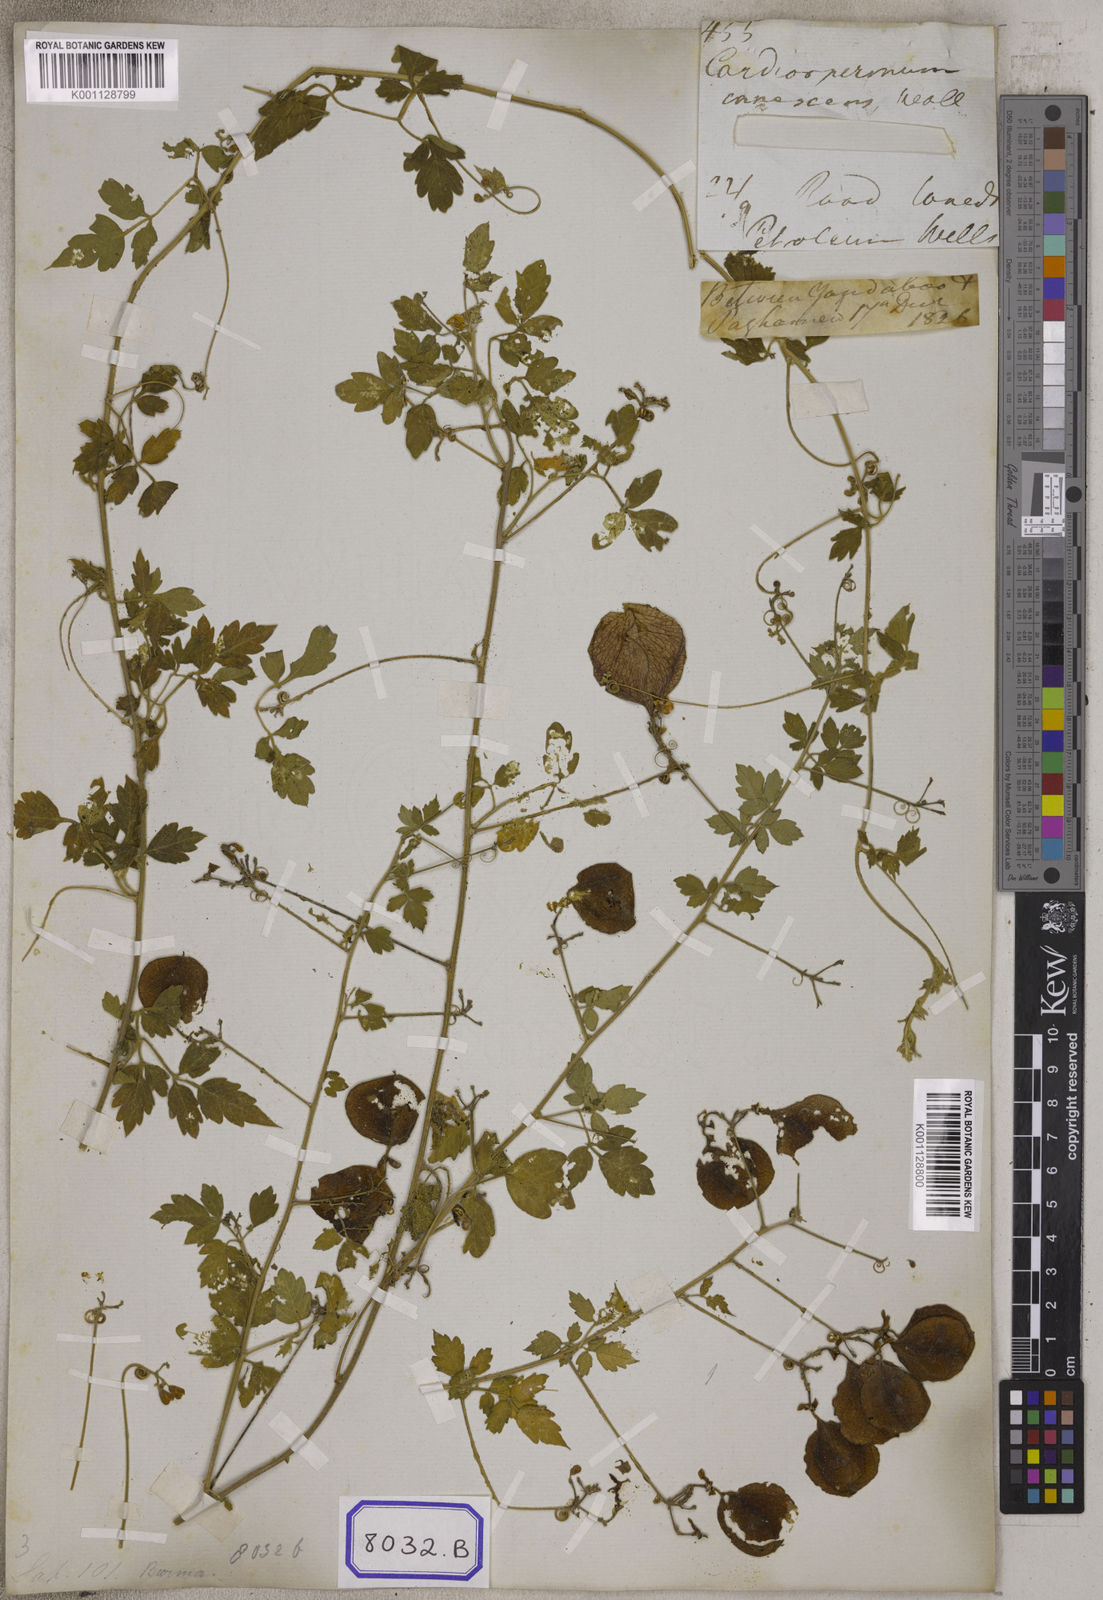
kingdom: Plantae
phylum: Tracheophyta
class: Magnoliopsida
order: Sapindales
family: Sapindaceae
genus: Cardiospermum
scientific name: Cardiospermum corindum
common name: Faux persil
